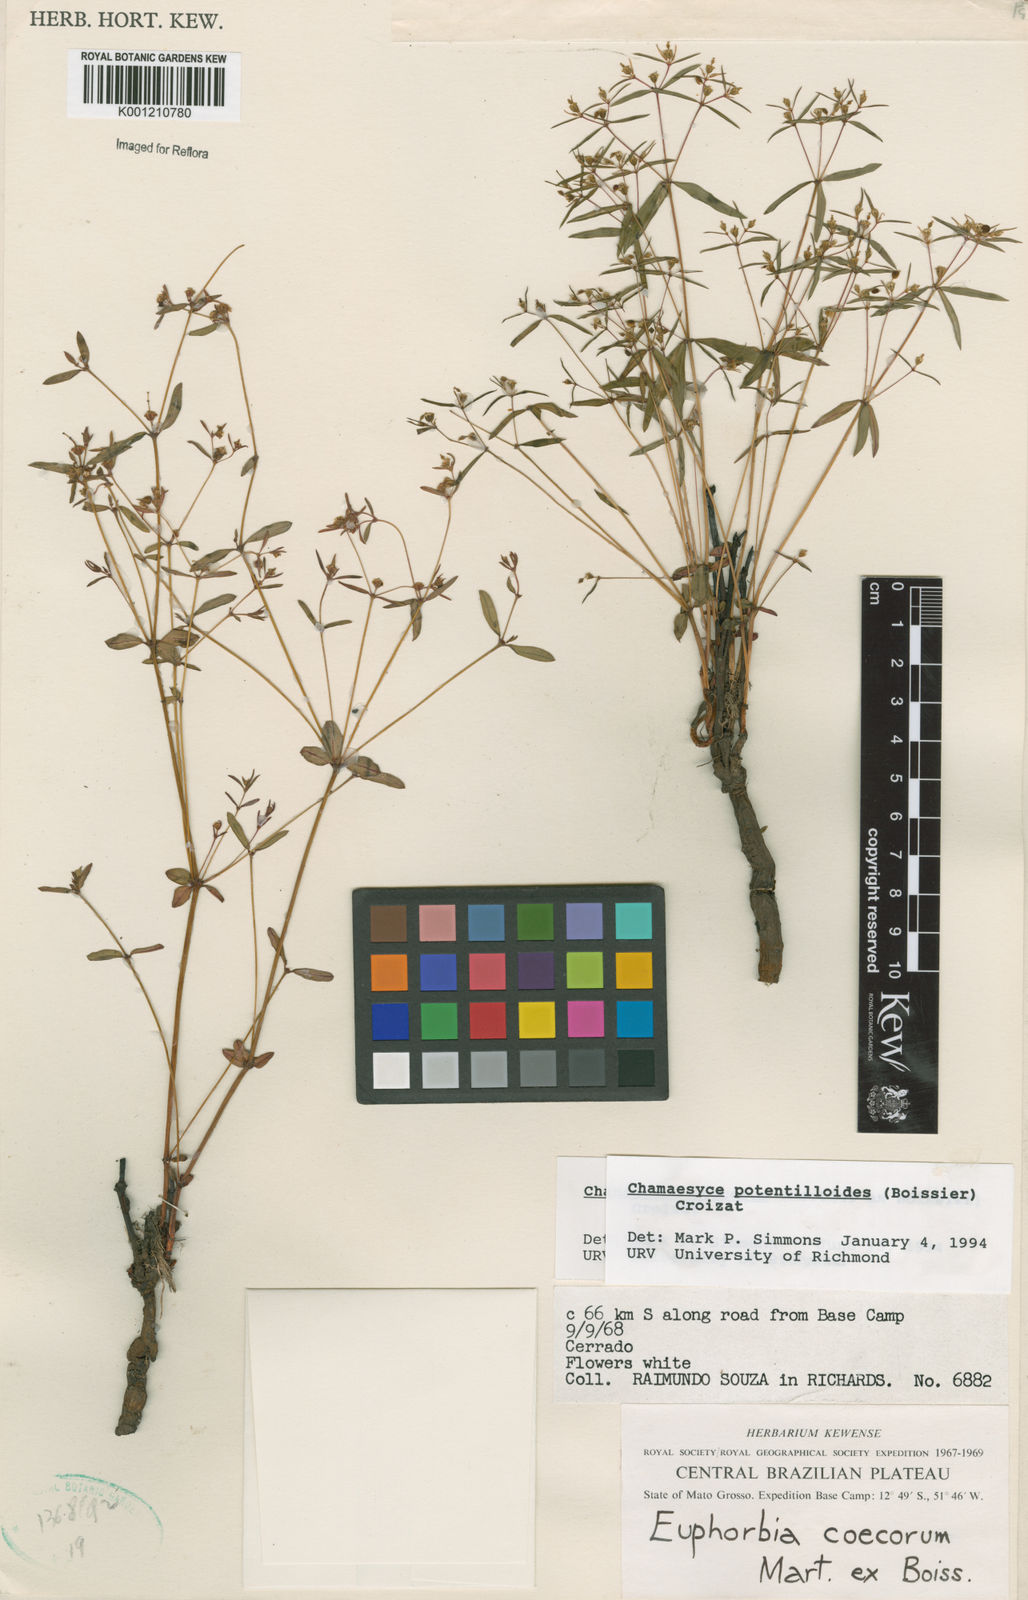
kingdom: Plantae
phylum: Tracheophyta
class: Magnoliopsida
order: Malpighiales
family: Euphorbiaceae
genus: Euphorbia
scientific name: Euphorbia potentilloides
